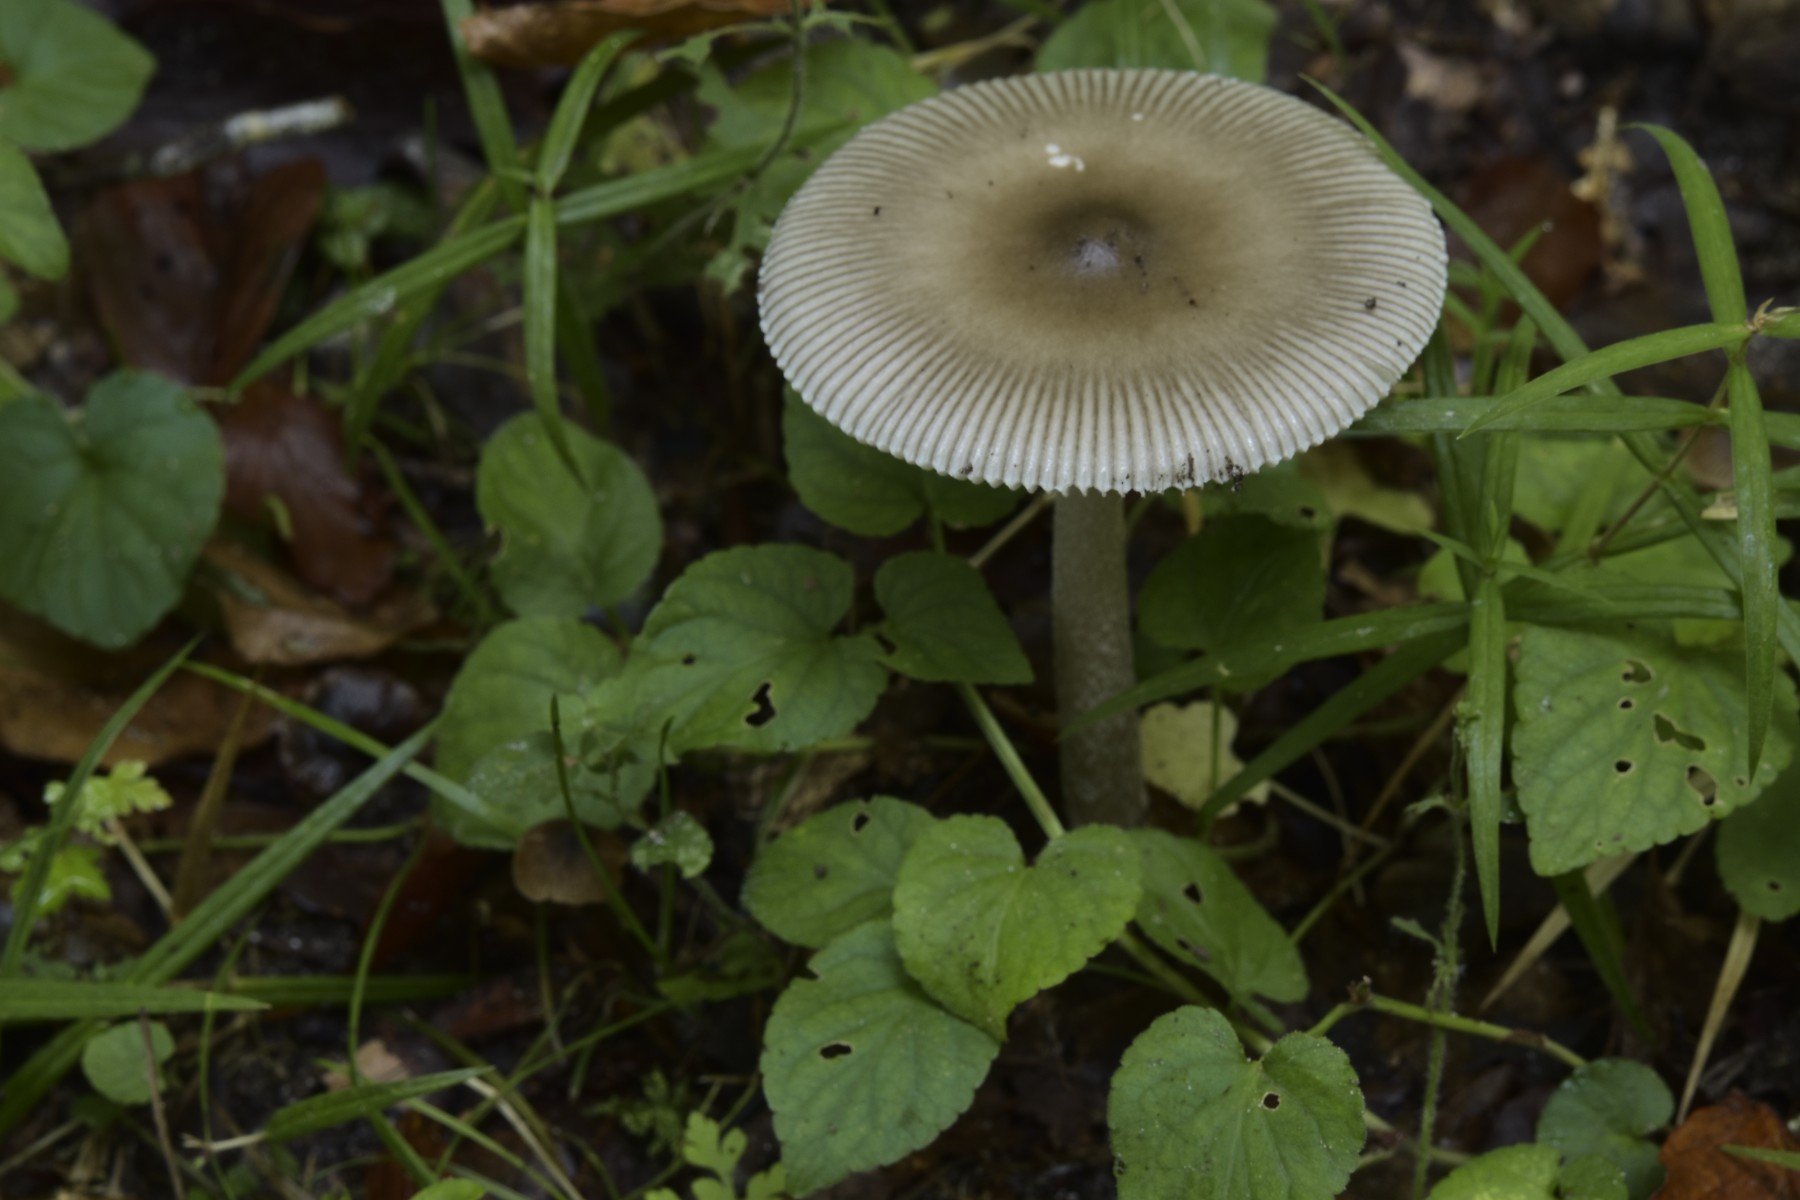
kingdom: Fungi
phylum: Basidiomycota
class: Agaricomycetes
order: Agaricales
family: Amanitaceae
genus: Amanita
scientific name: Amanita
